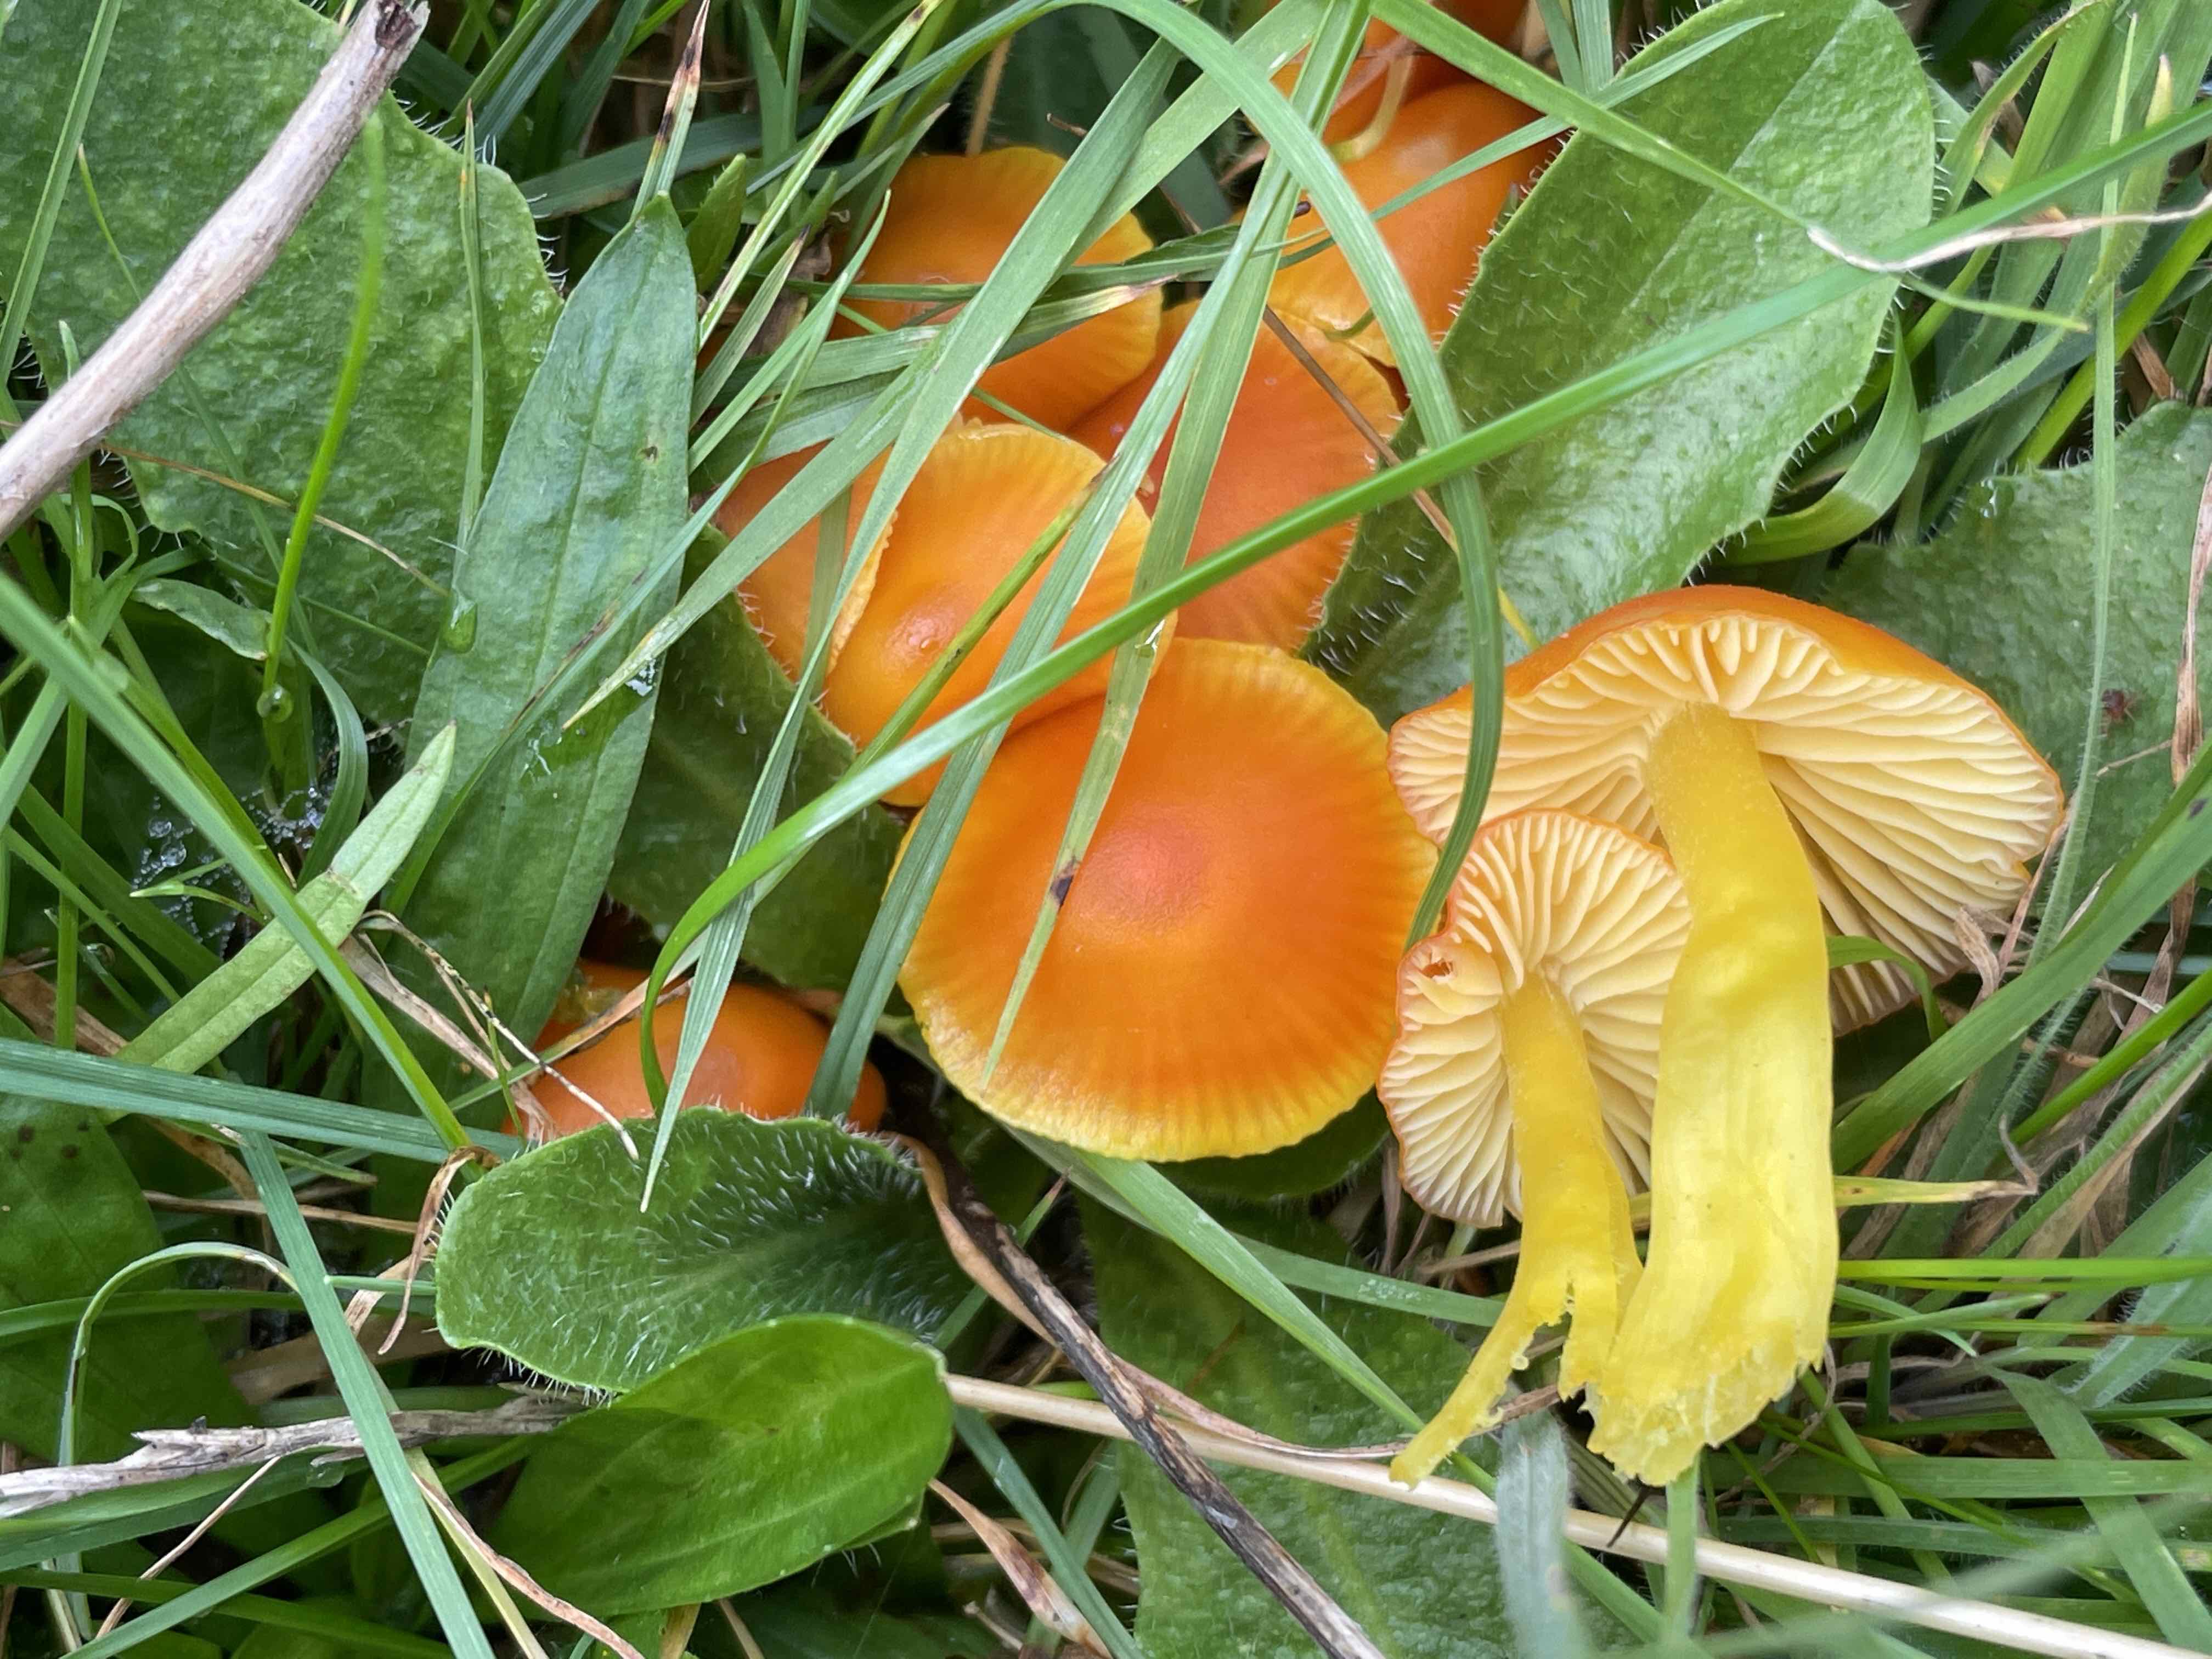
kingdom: Fungi
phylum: Basidiomycota
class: Agaricomycetes
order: Agaricales
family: Hygrophoraceae
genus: Hygrocybe
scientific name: Hygrocybe chlorophana
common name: gul vokshat
